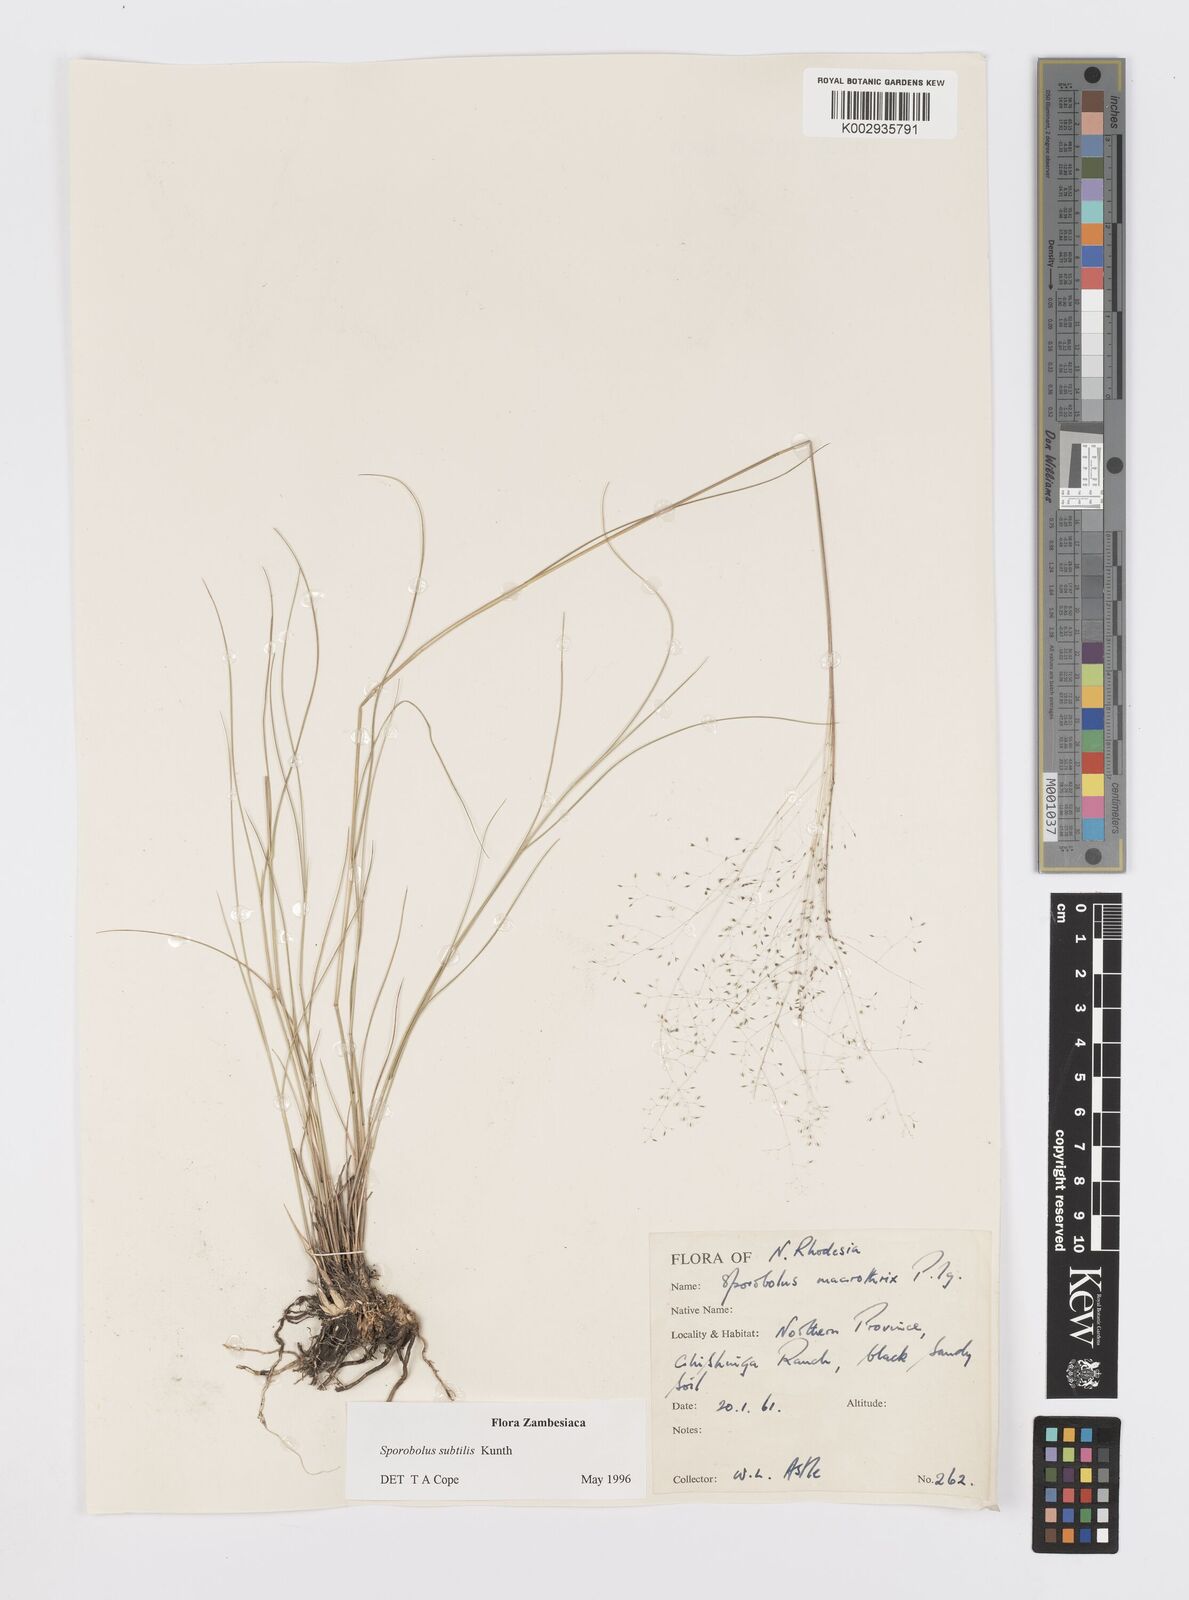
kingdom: Plantae
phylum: Tracheophyta
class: Liliopsida
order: Poales
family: Poaceae
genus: Sporobolus
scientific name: Sporobolus subtilis
